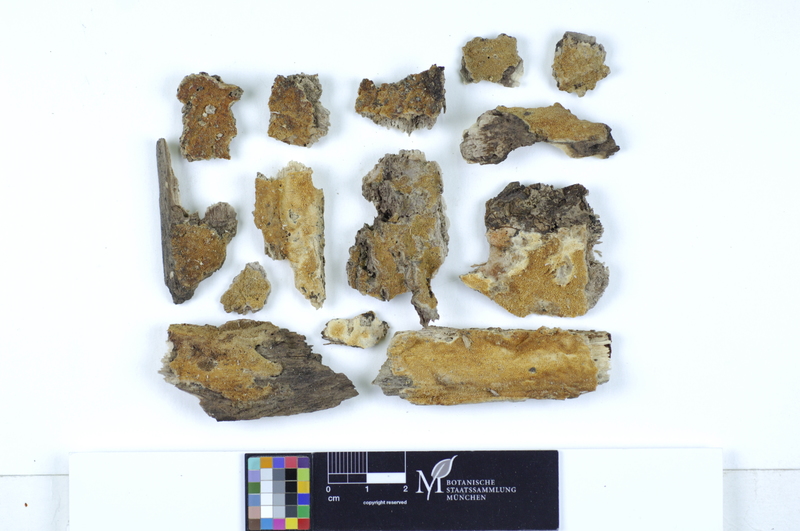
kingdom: Fungi
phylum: Basidiomycota
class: Agaricomycetes
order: Polyporales
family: Irpicaceae
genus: Ceriporia
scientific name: Ceriporia excelsa
